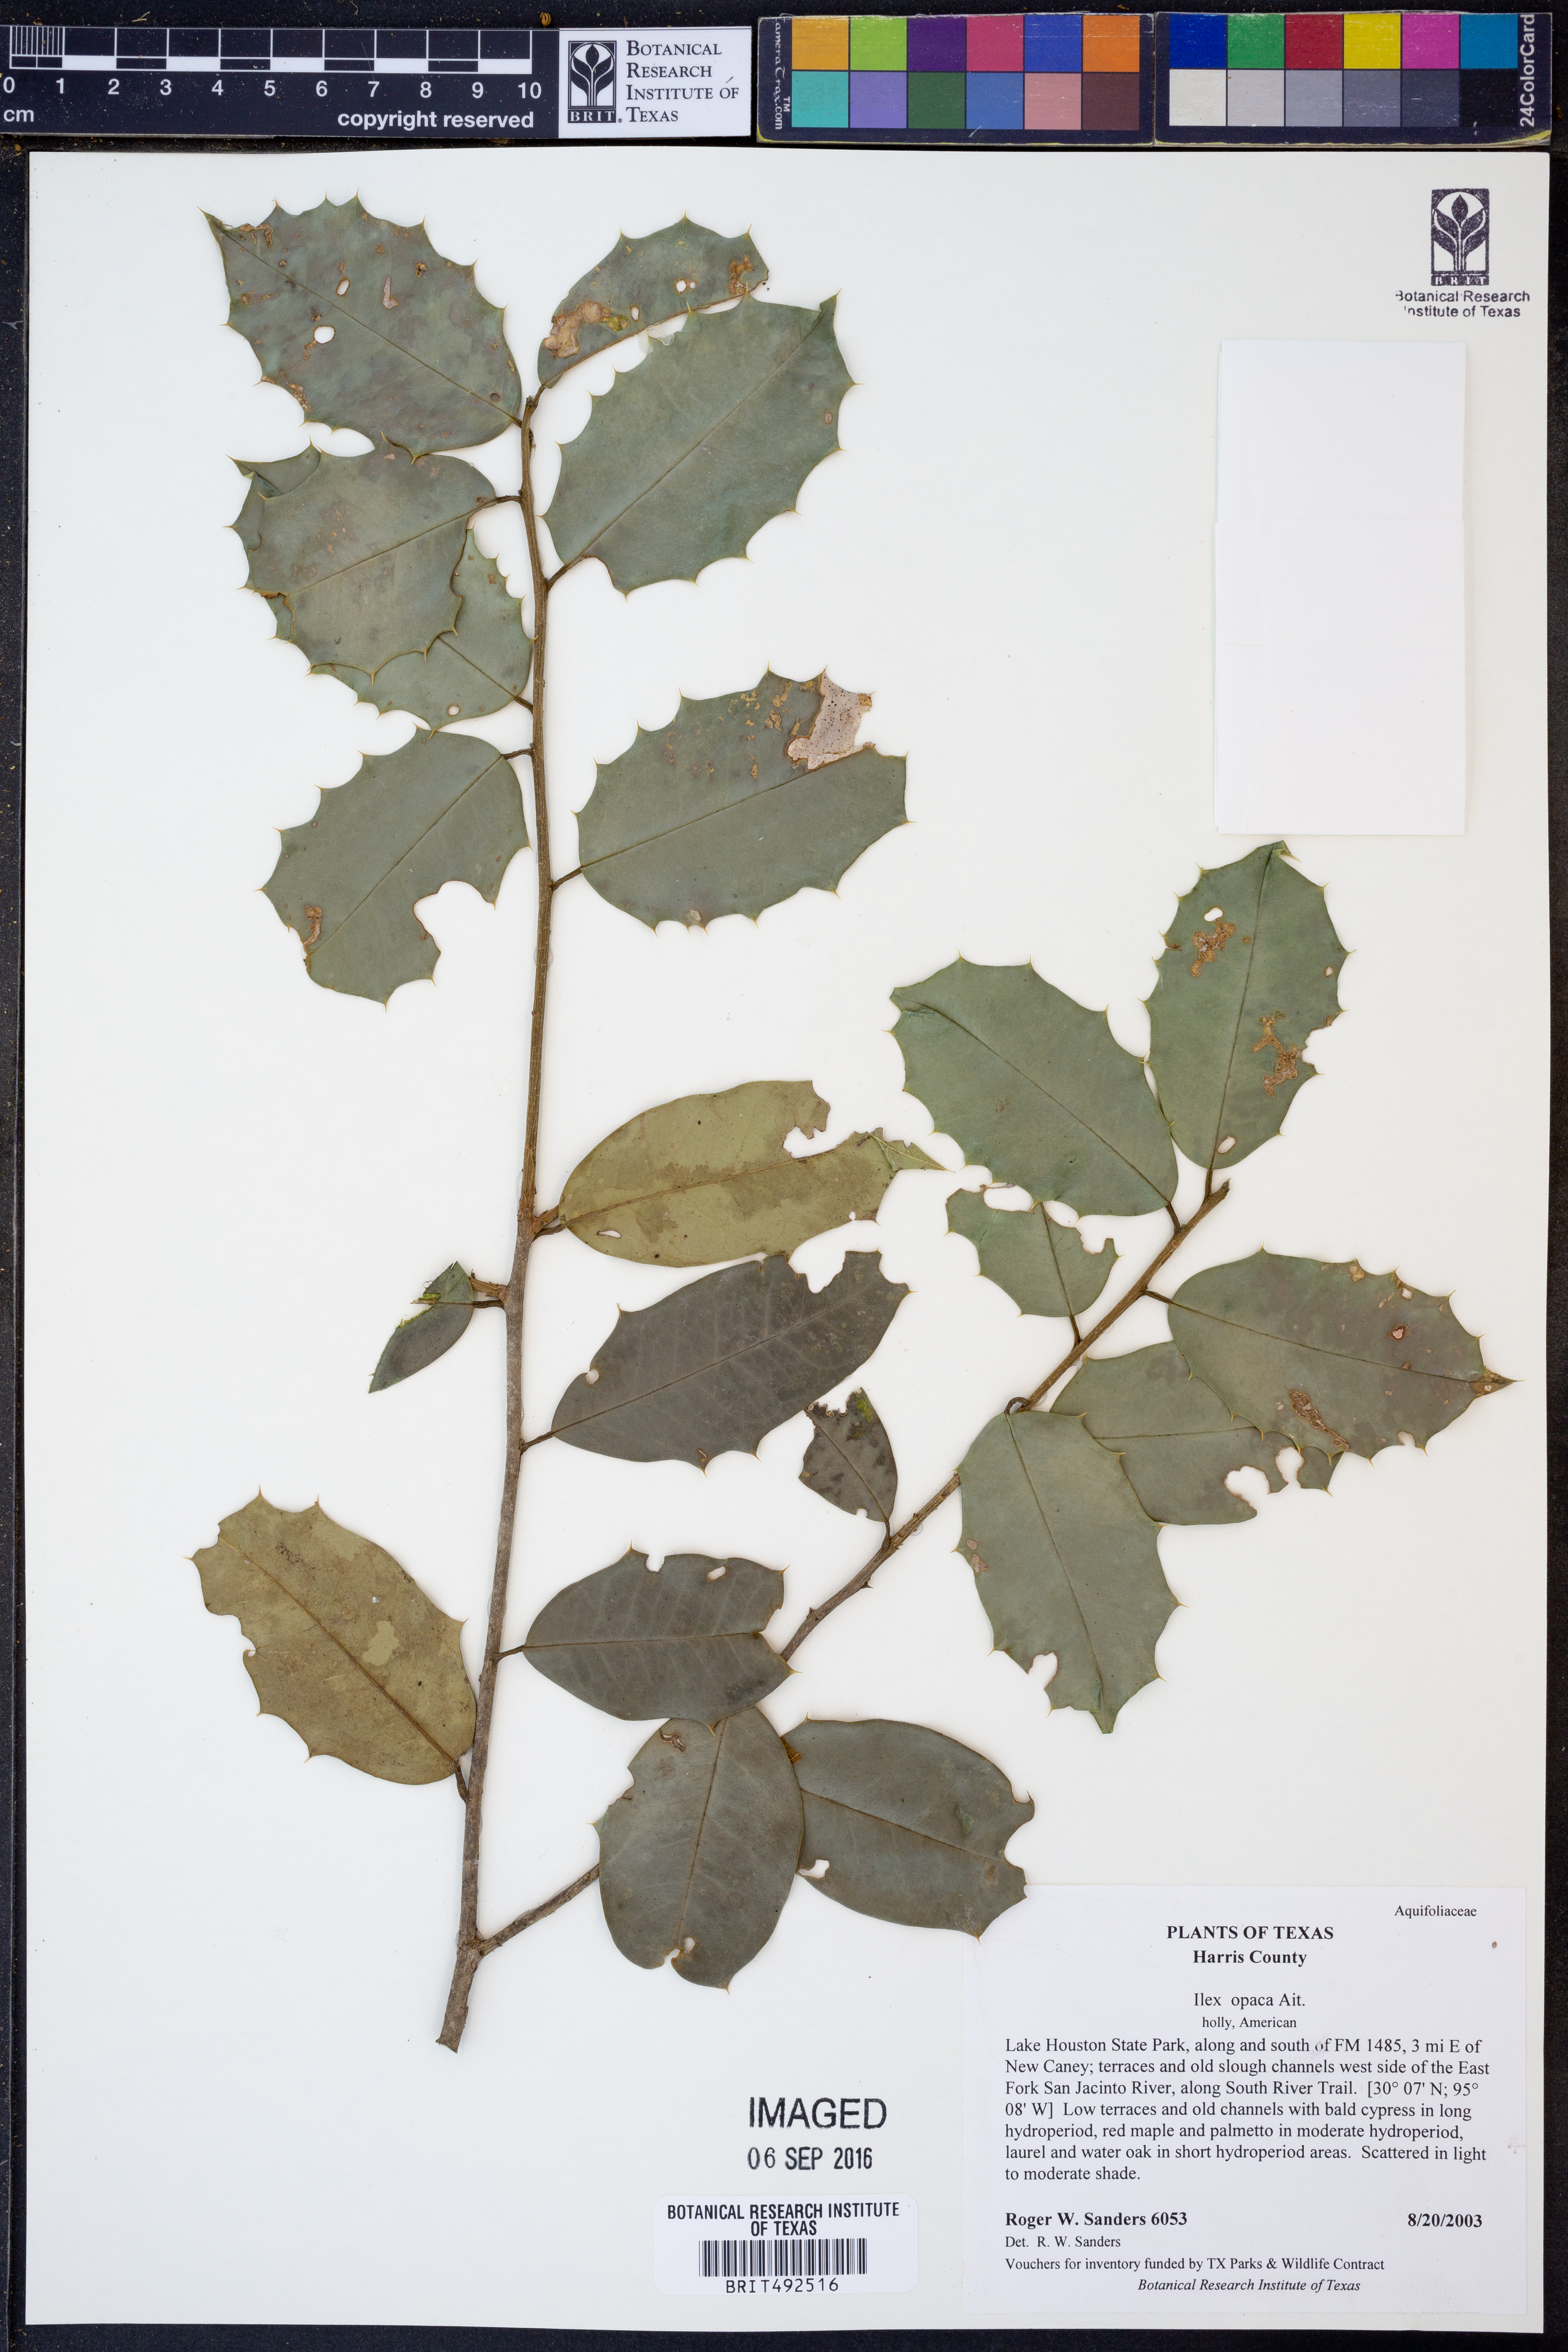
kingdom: Plantae
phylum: Tracheophyta
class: Magnoliopsida
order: Aquifoliales
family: Aquifoliaceae
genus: Ilex
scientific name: Ilex opaca
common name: American holly
